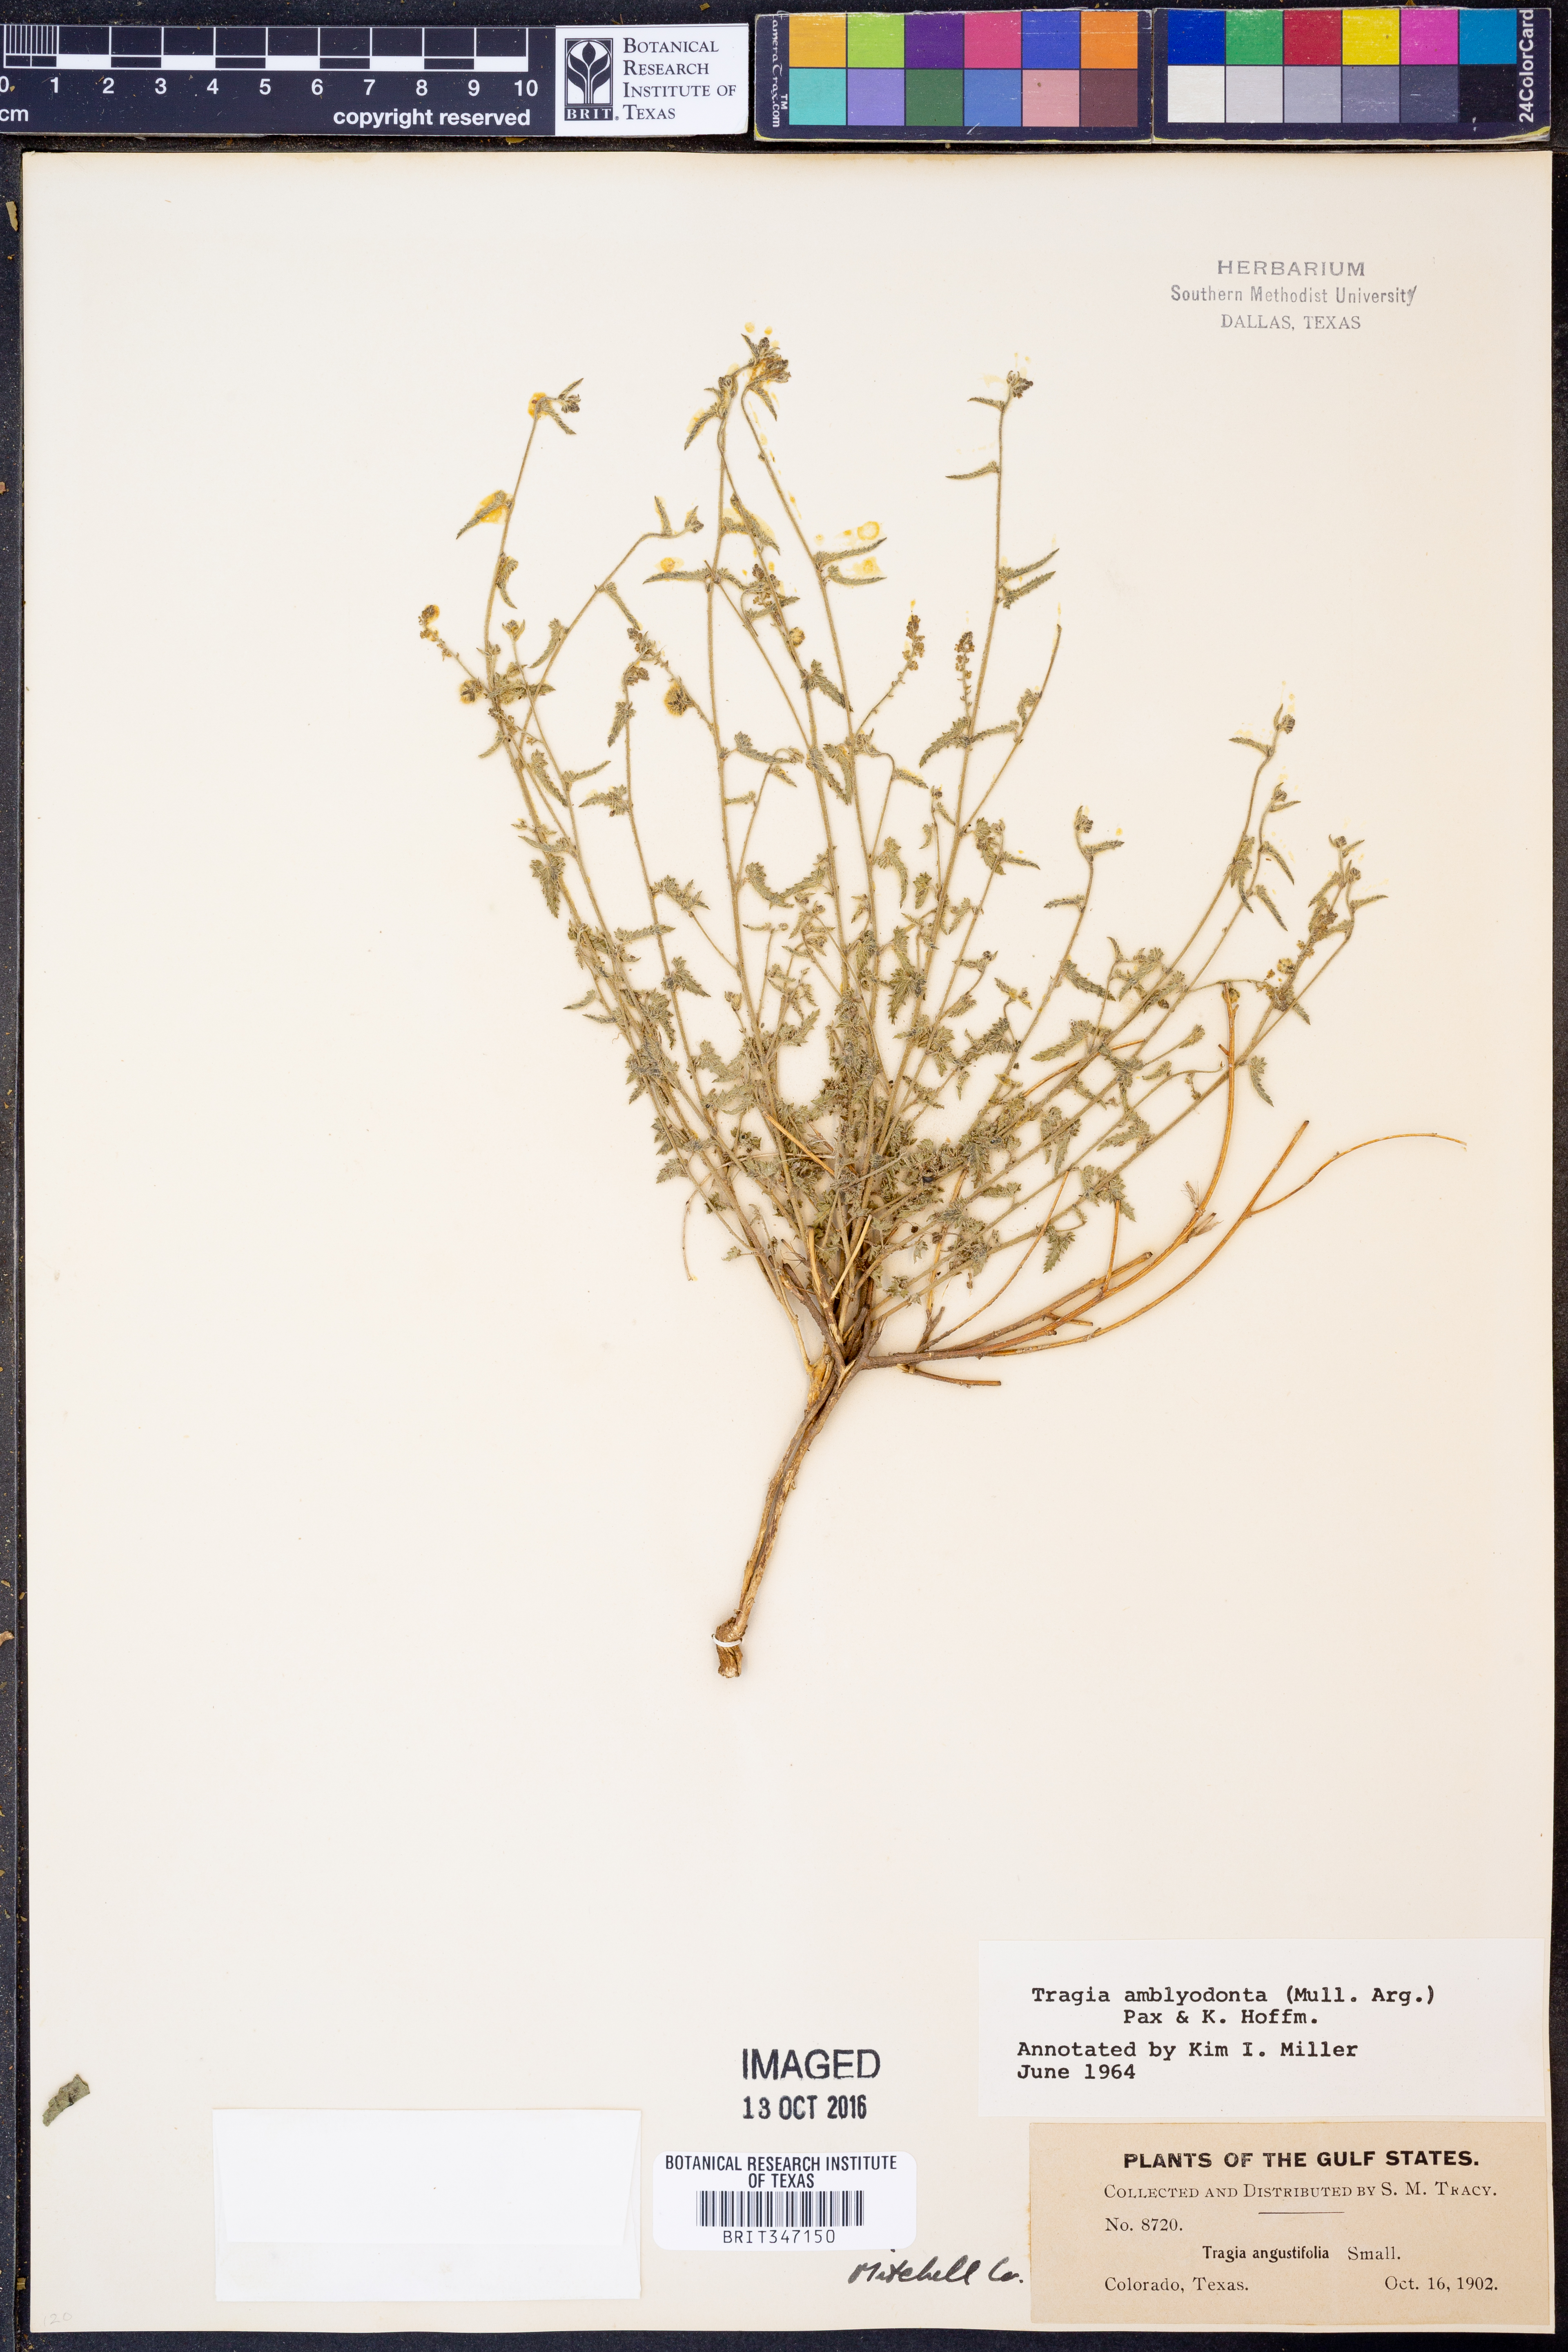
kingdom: Plantae
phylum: Tracheophyta
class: Magnoliopsida
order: Malpighiales
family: Euphorbiaceae
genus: Tragia
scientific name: Tragia amblyodonta
